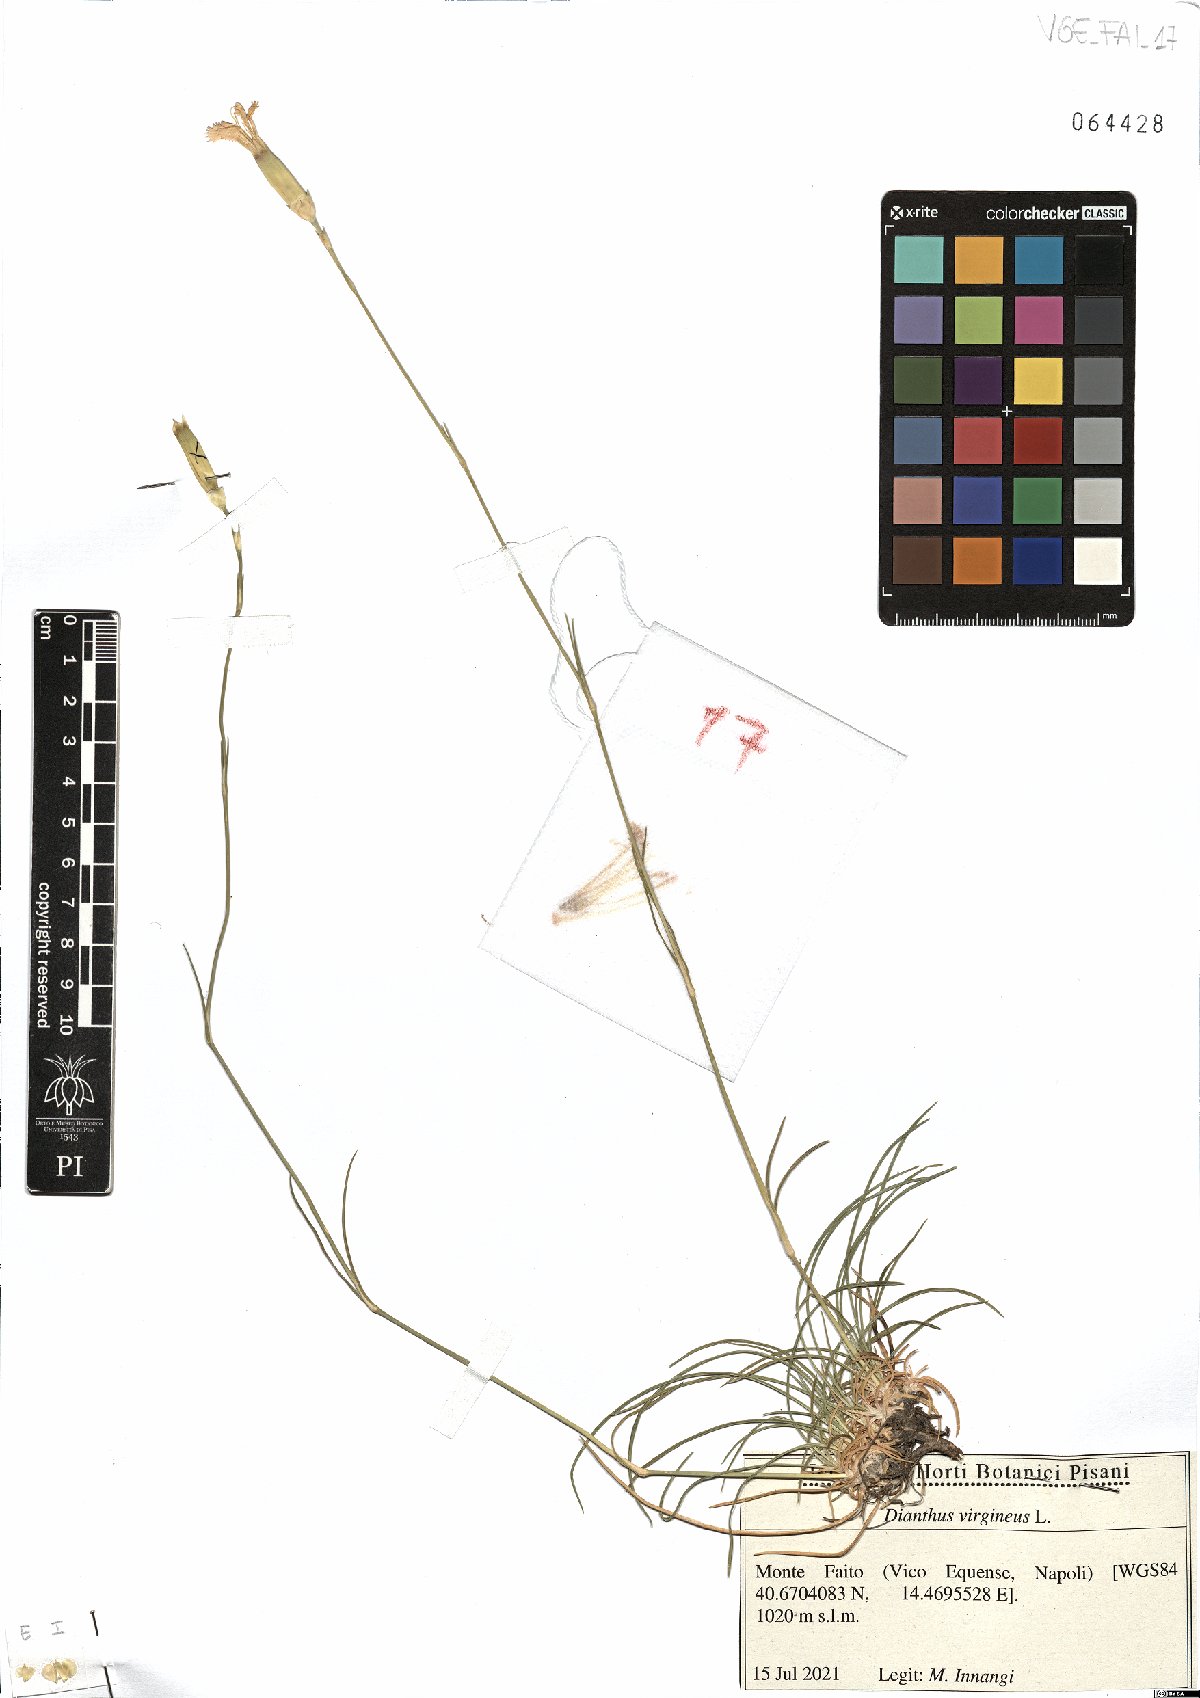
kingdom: Plantae
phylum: Tracheophyta
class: Magnoliopsida
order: Caryophyllales
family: Caryophyllaceae
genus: Dianthus
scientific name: Dianthus virgineus
